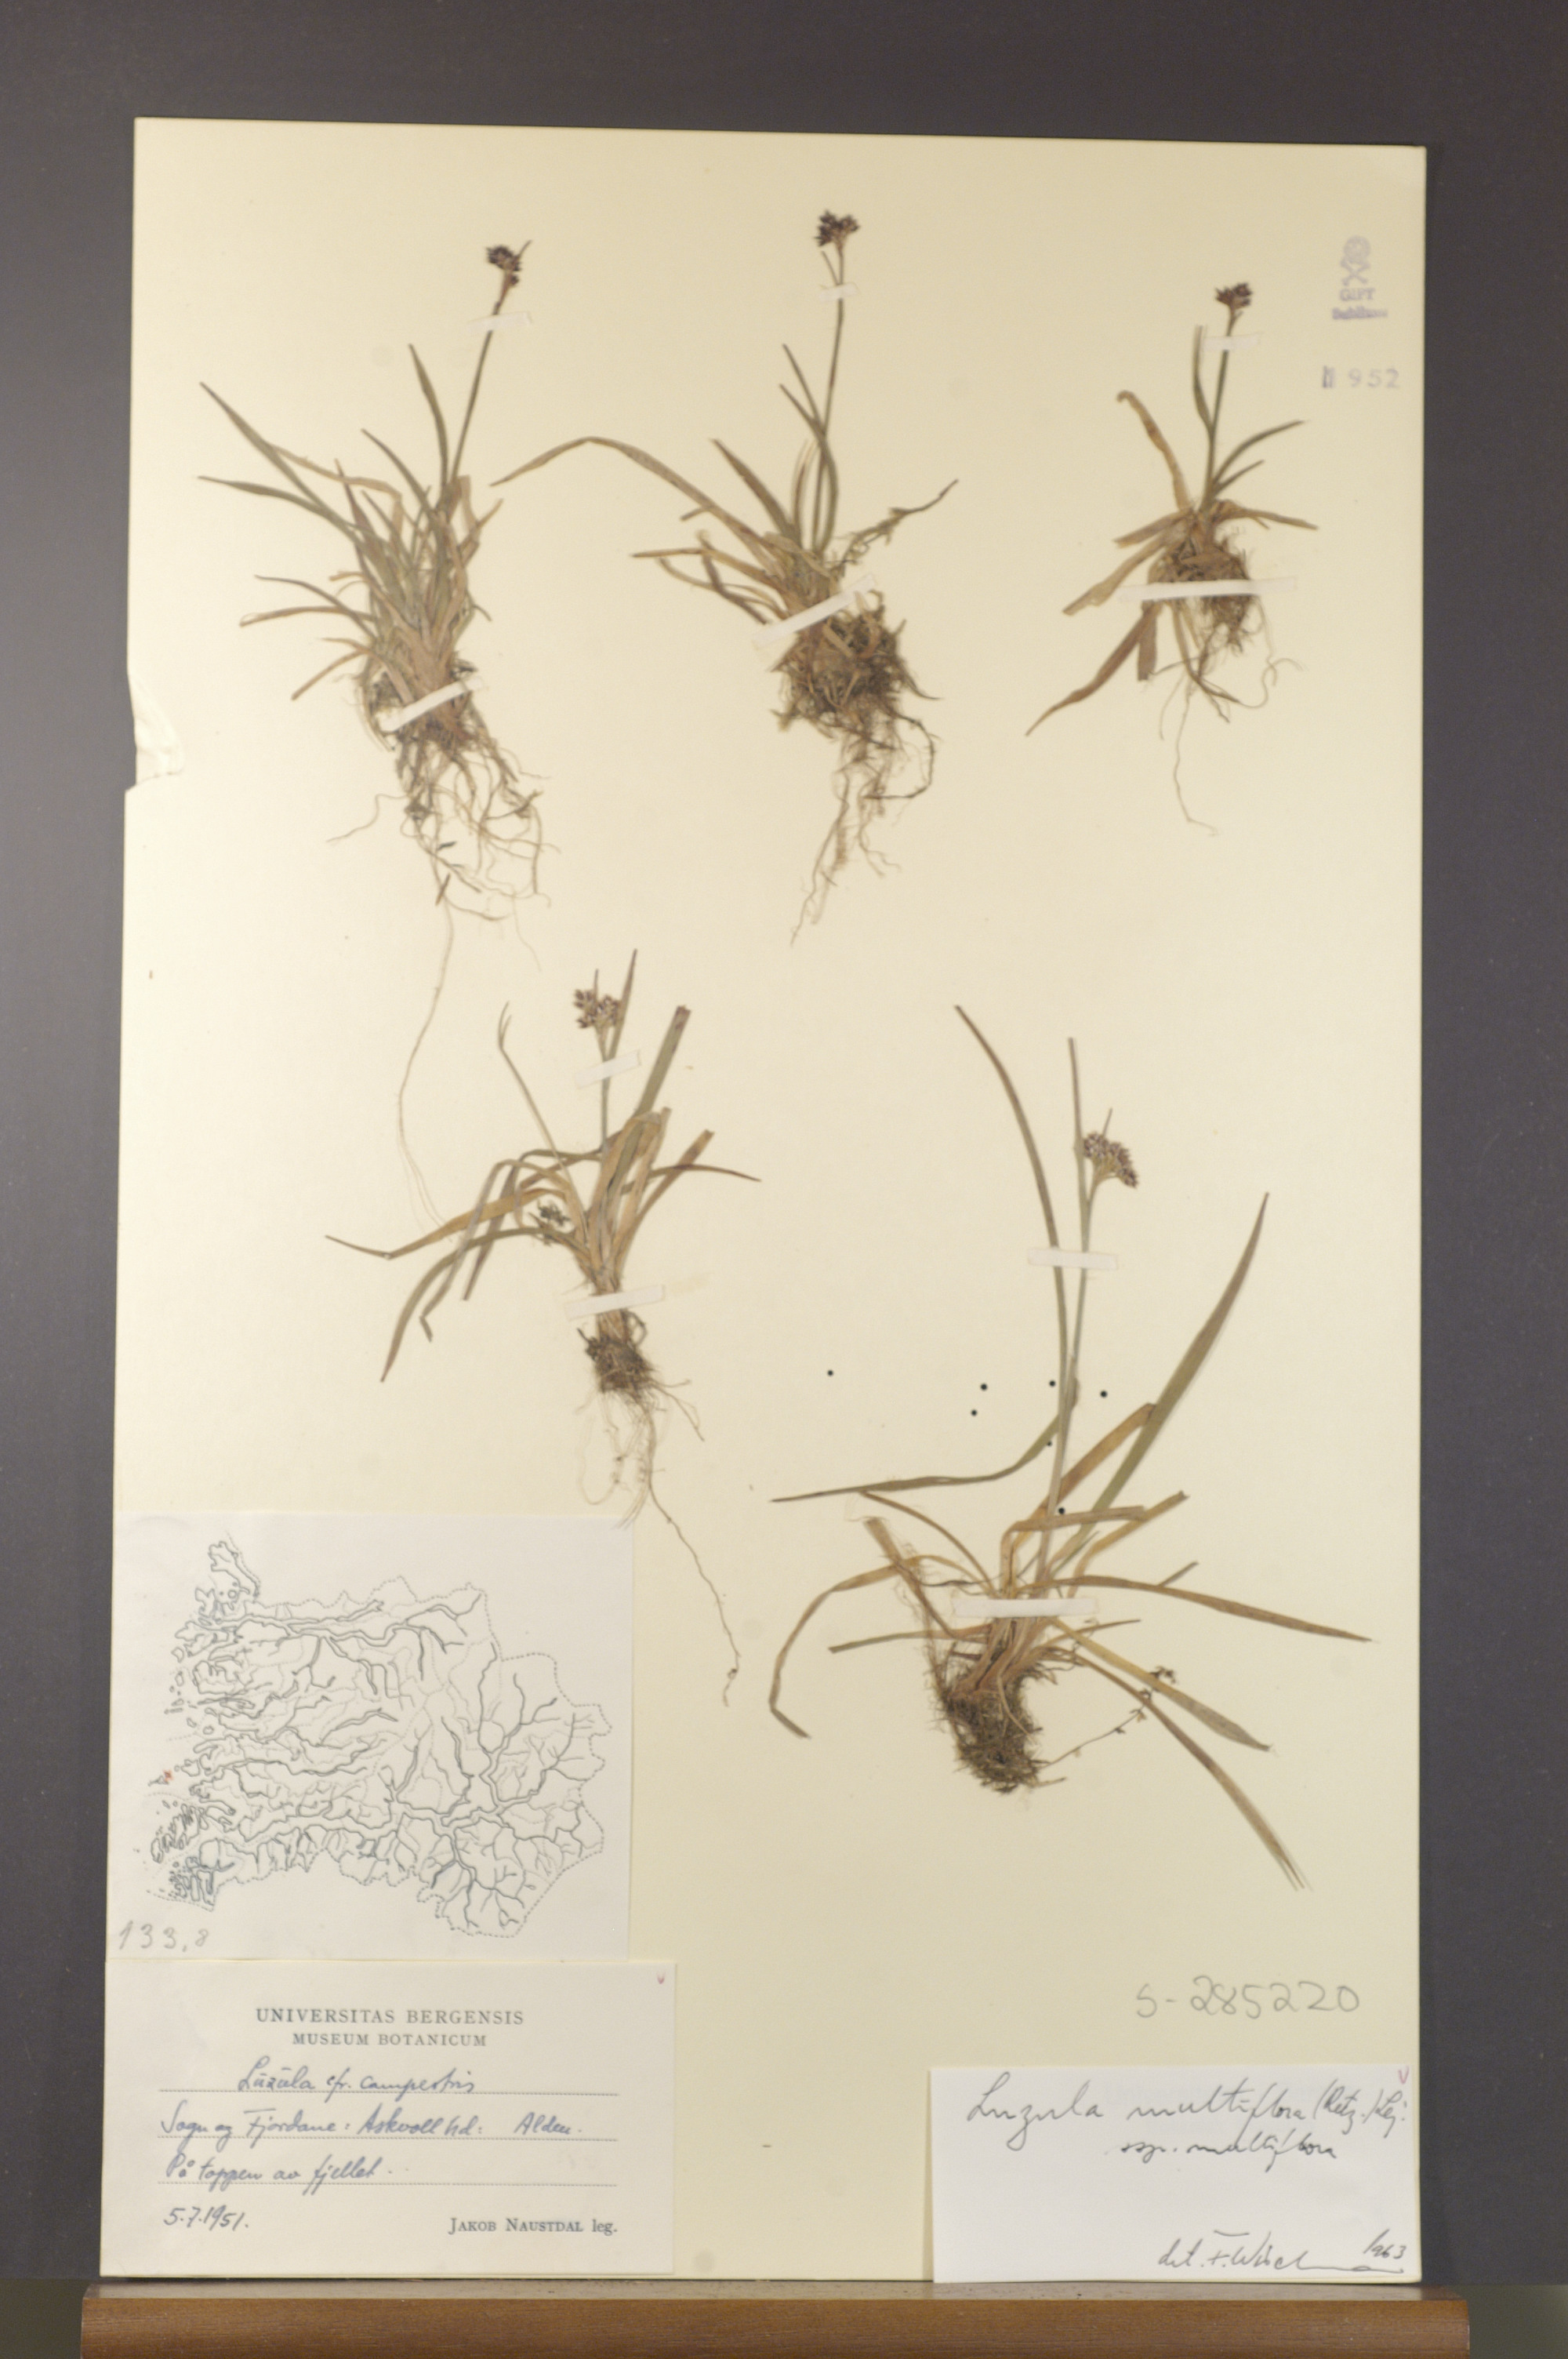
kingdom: Plantae
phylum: Tracheophyta
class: Liliopsida
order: Poales
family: Juncaceae
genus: Luzula
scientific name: Luzula multiflora
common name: Heath wood-rush
